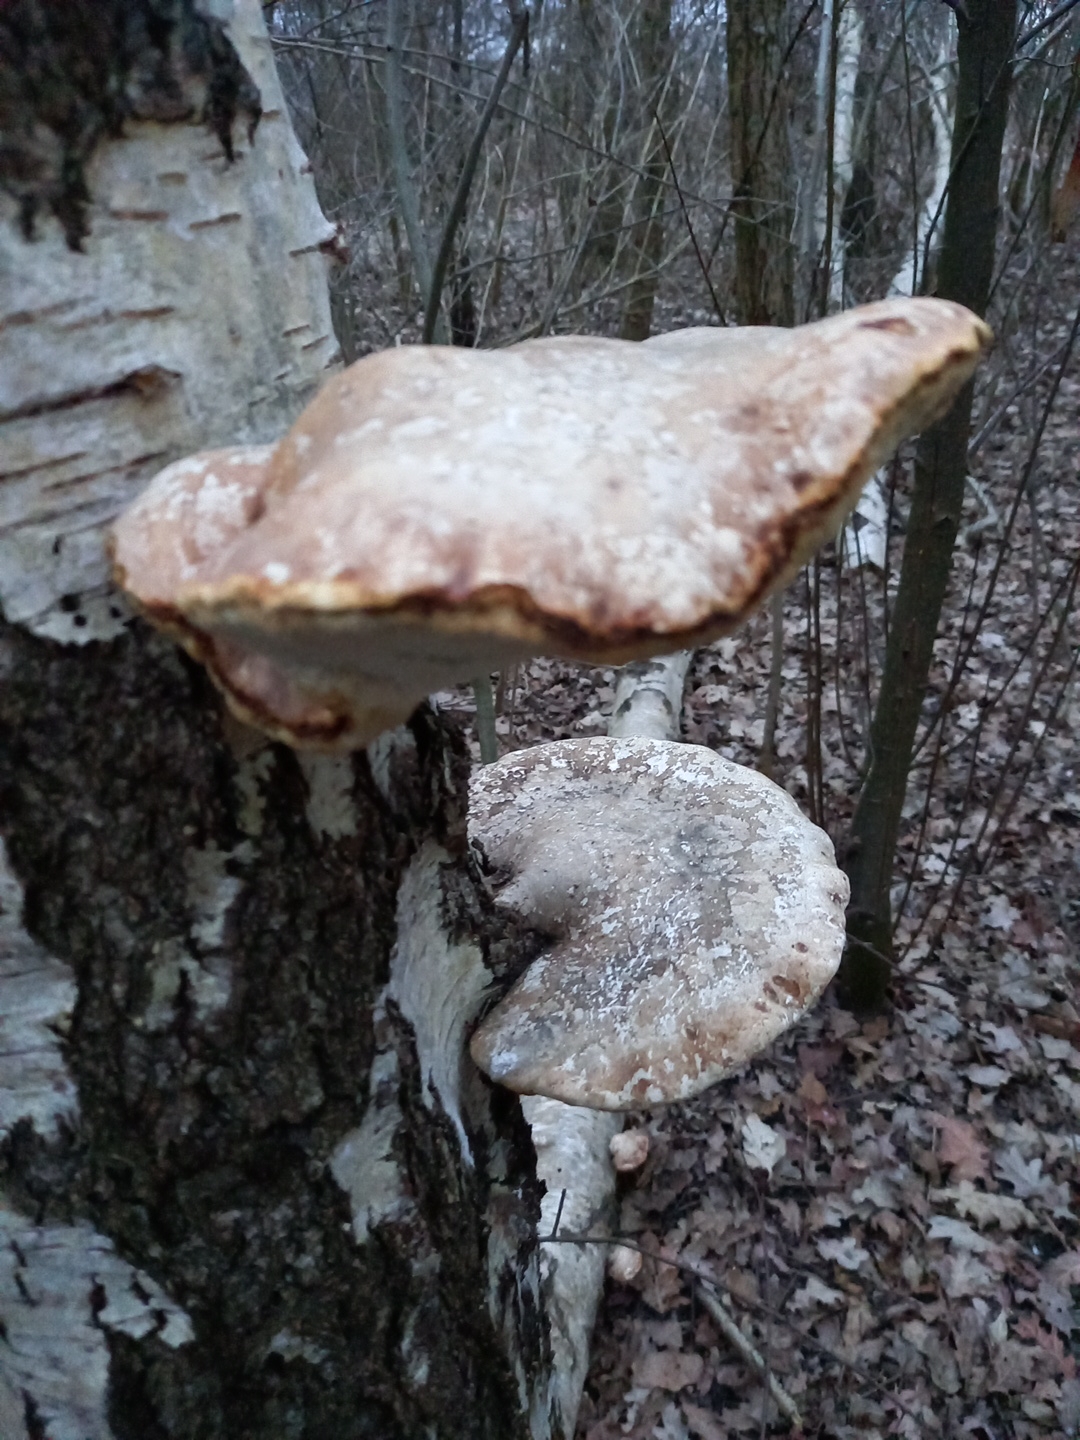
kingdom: Fungi
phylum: Basidiomycota
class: Agaricomycetes
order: Polyporales
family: Fomitopsidaceae
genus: Fomitopsis
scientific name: Fomitopsis betulina
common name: birkeporesvamp
